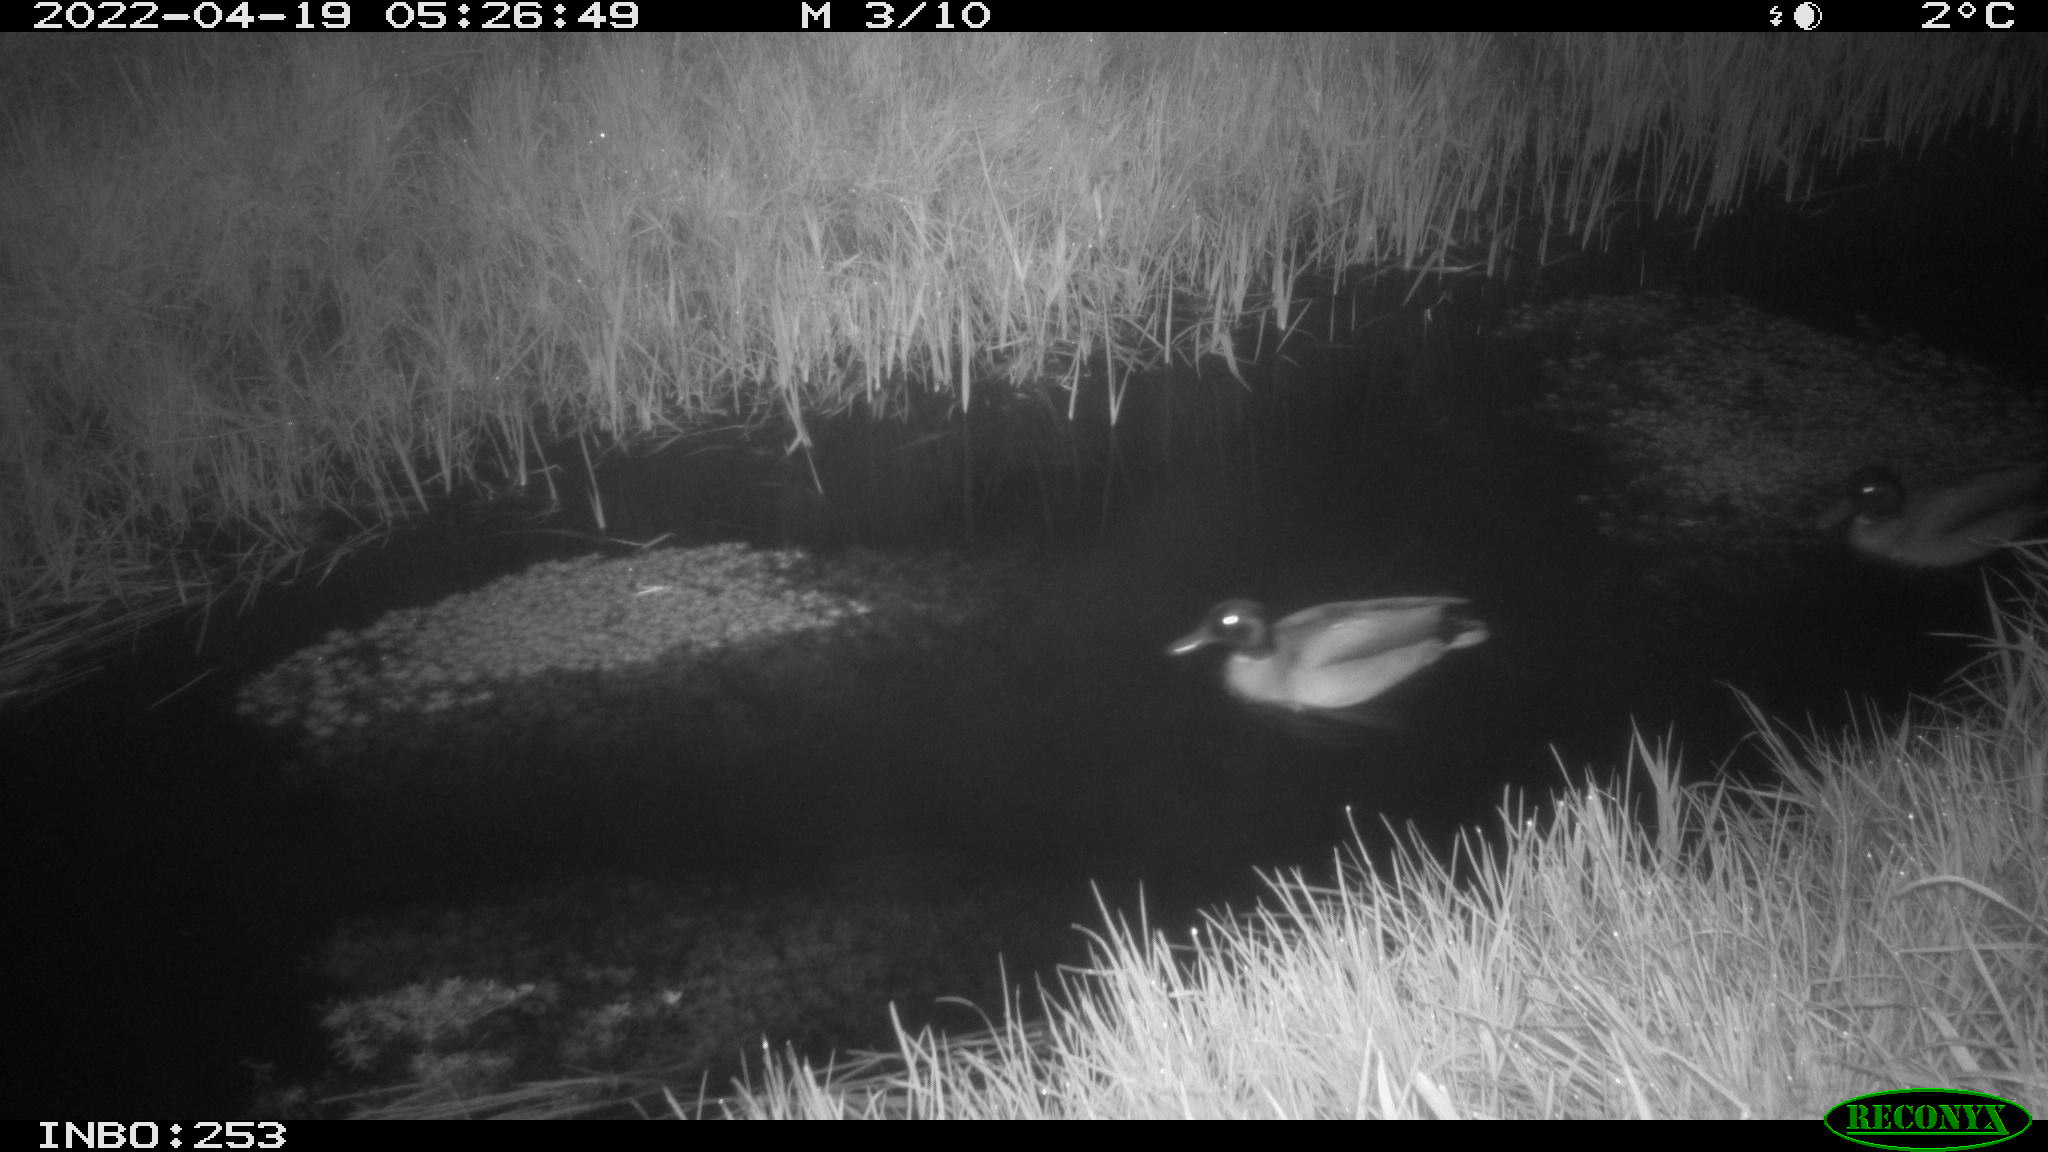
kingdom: Animalia
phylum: Chordata
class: Aves
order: Anseriformes
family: Anatidae
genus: Anas
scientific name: Anas platyrhynchos
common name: Mallard
